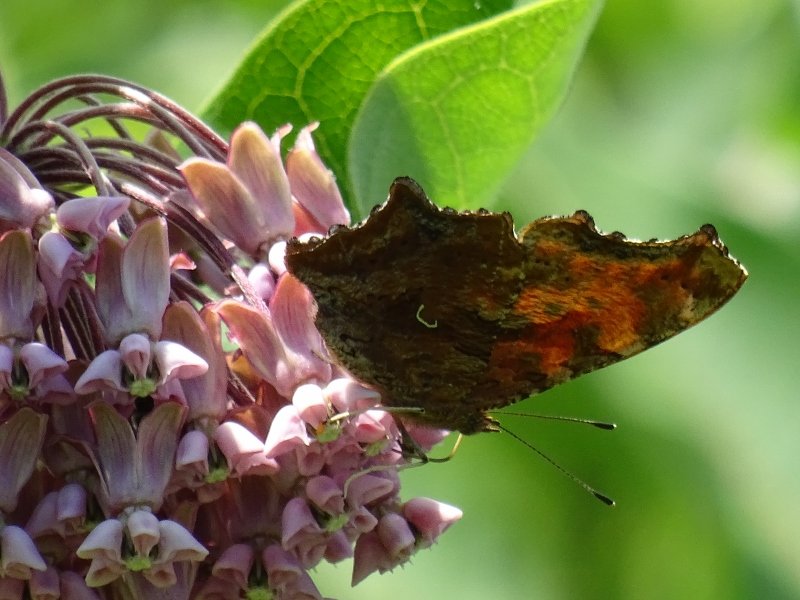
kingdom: Animalia
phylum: Arthropoda
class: Insecta
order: Lepidoptera
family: Nymphalidae
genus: Polygonia
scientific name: Polygonia comma
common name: Eastern Comma
